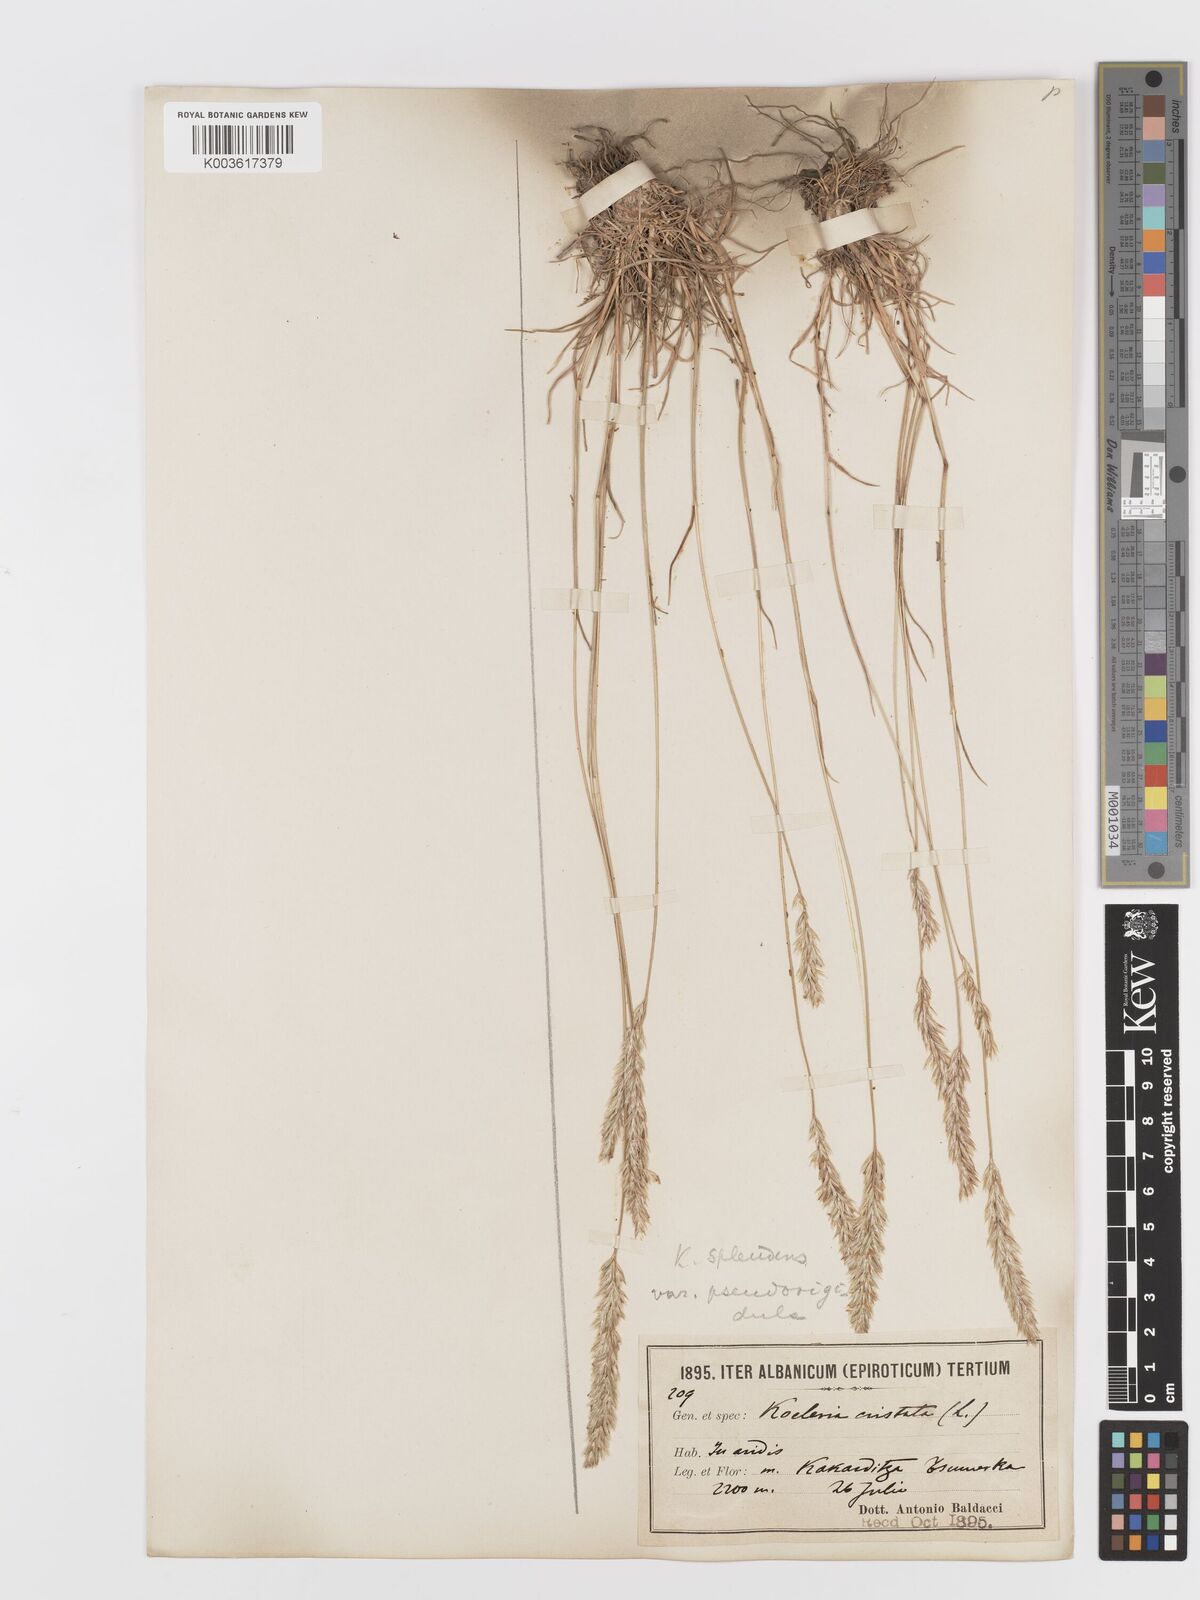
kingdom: Plantae
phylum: Tracheophyta
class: Liliopsida
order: Poales
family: Poaceae
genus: Koeleria
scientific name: Koeleria splendens
